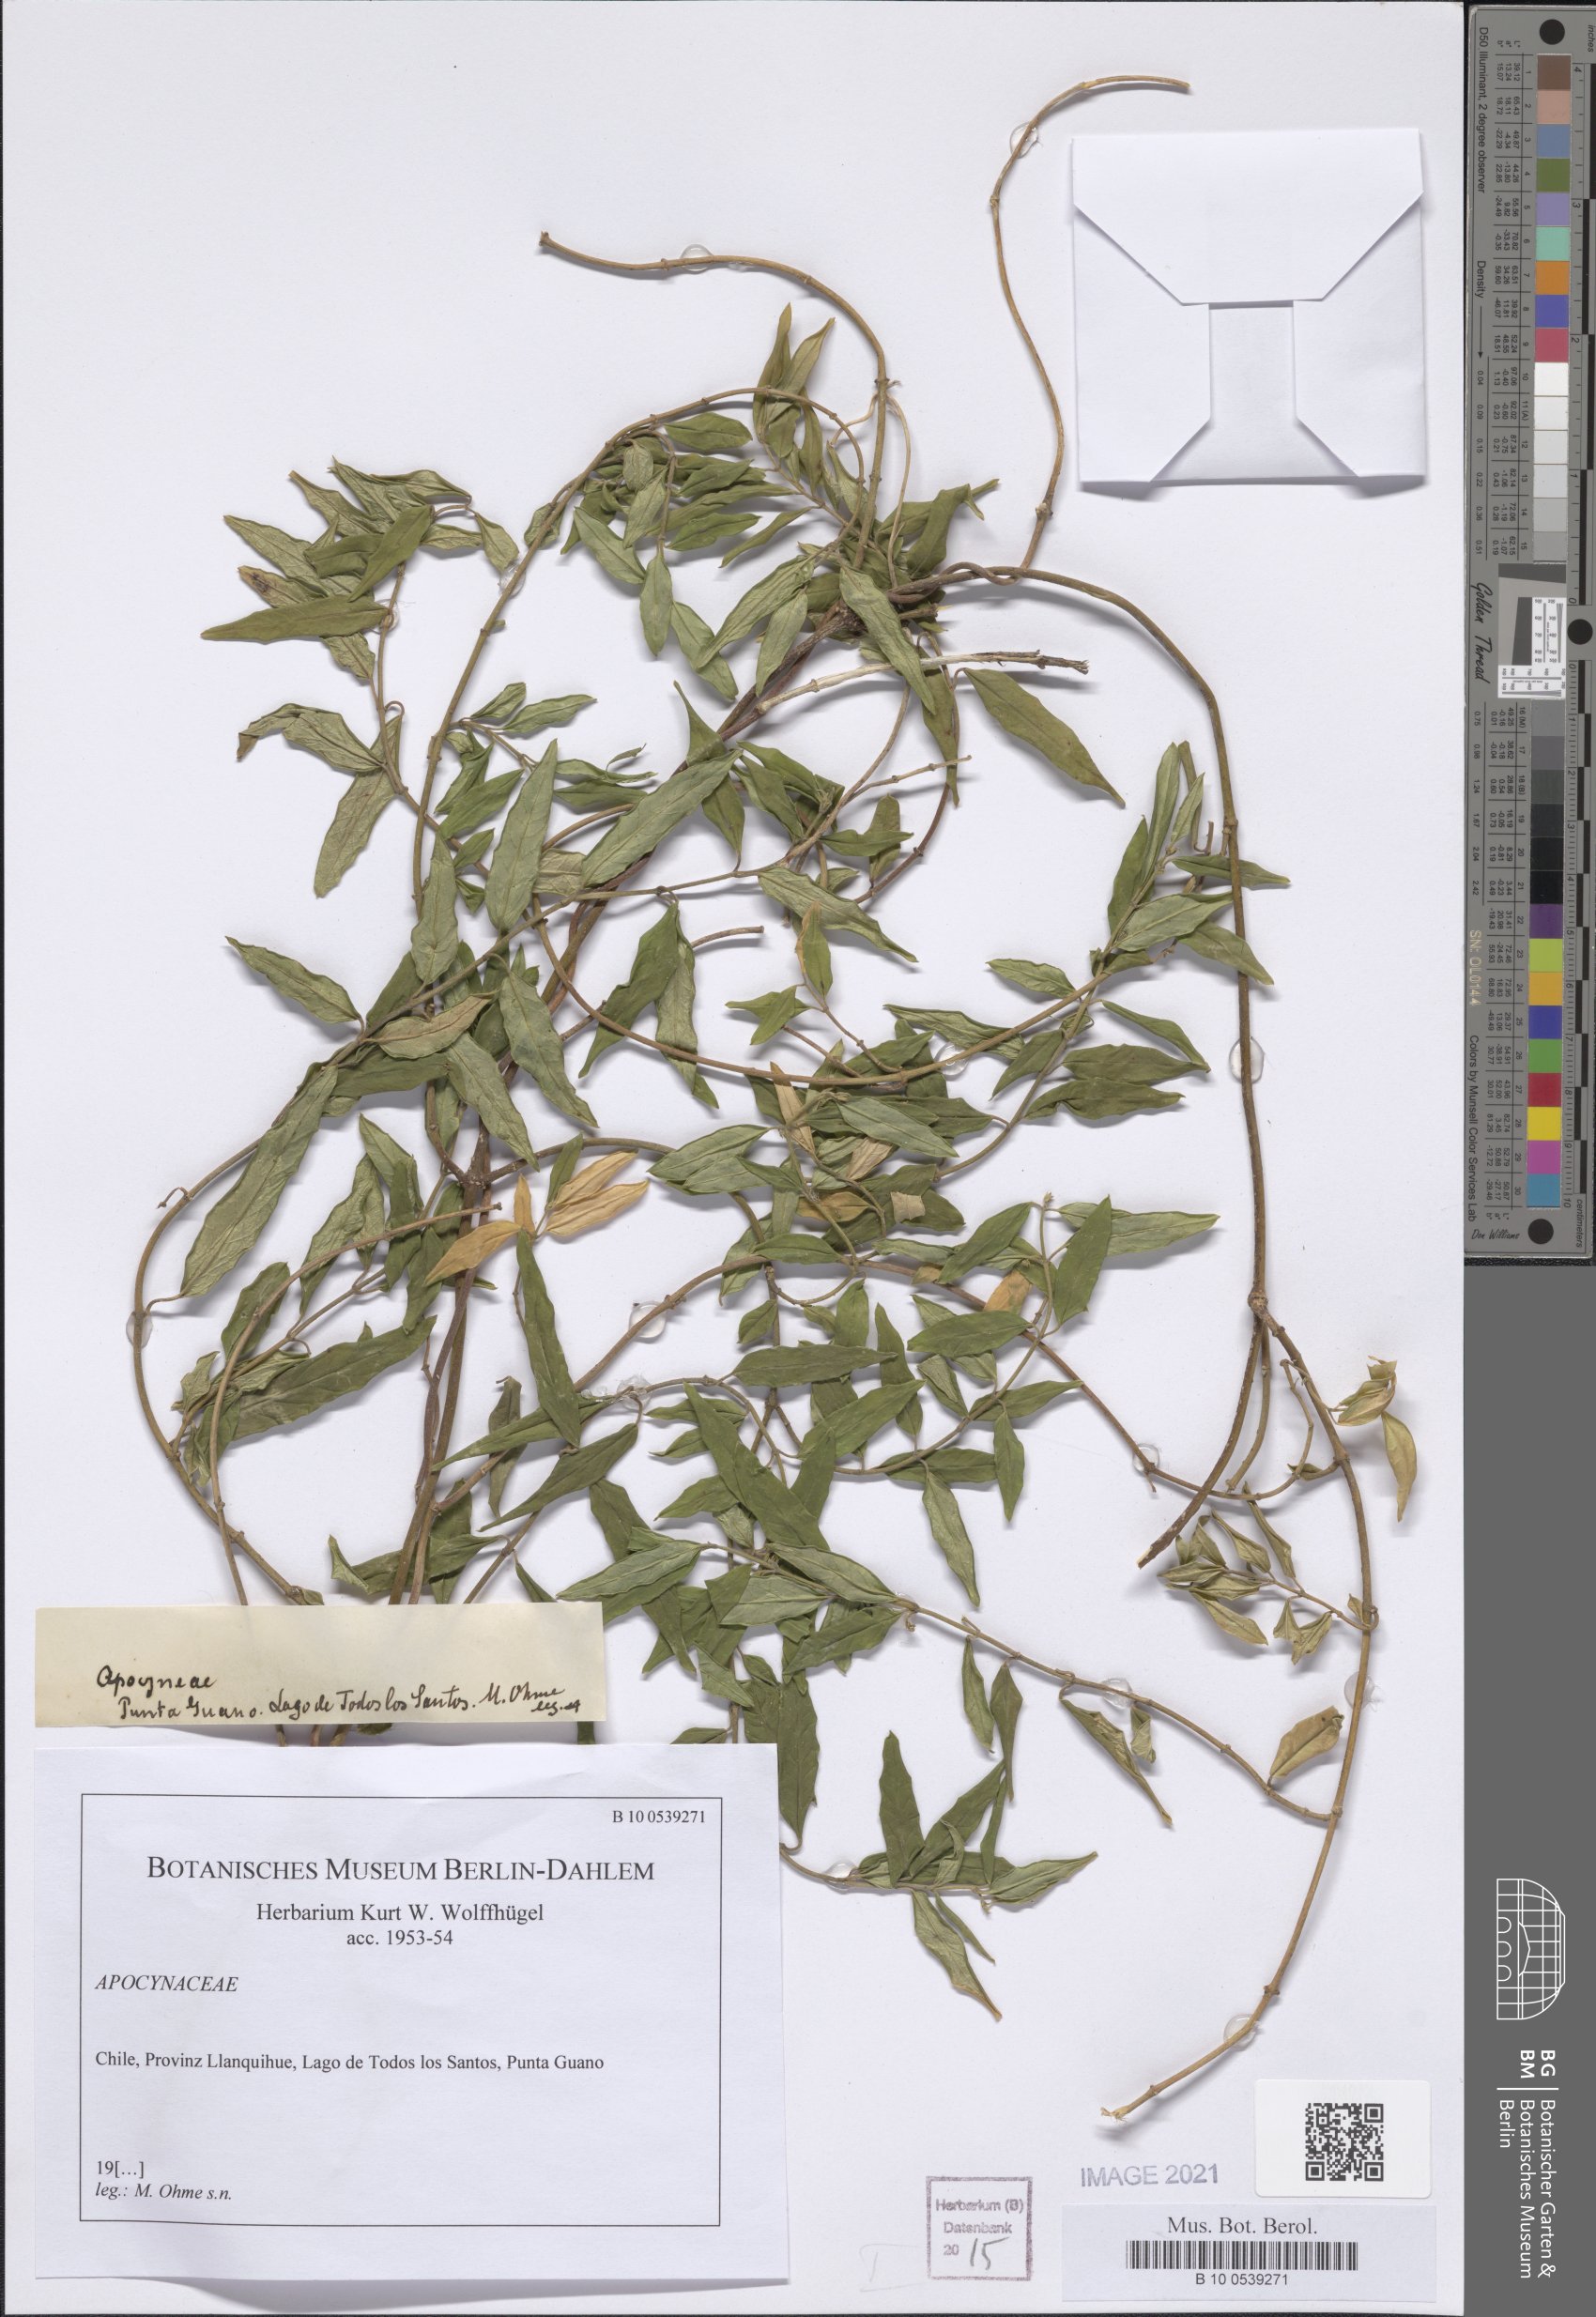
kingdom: Plantae
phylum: Tracheophyta
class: Magnoliopsida
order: Gentianales
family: Apocynaceae
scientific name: Apocynaceae
